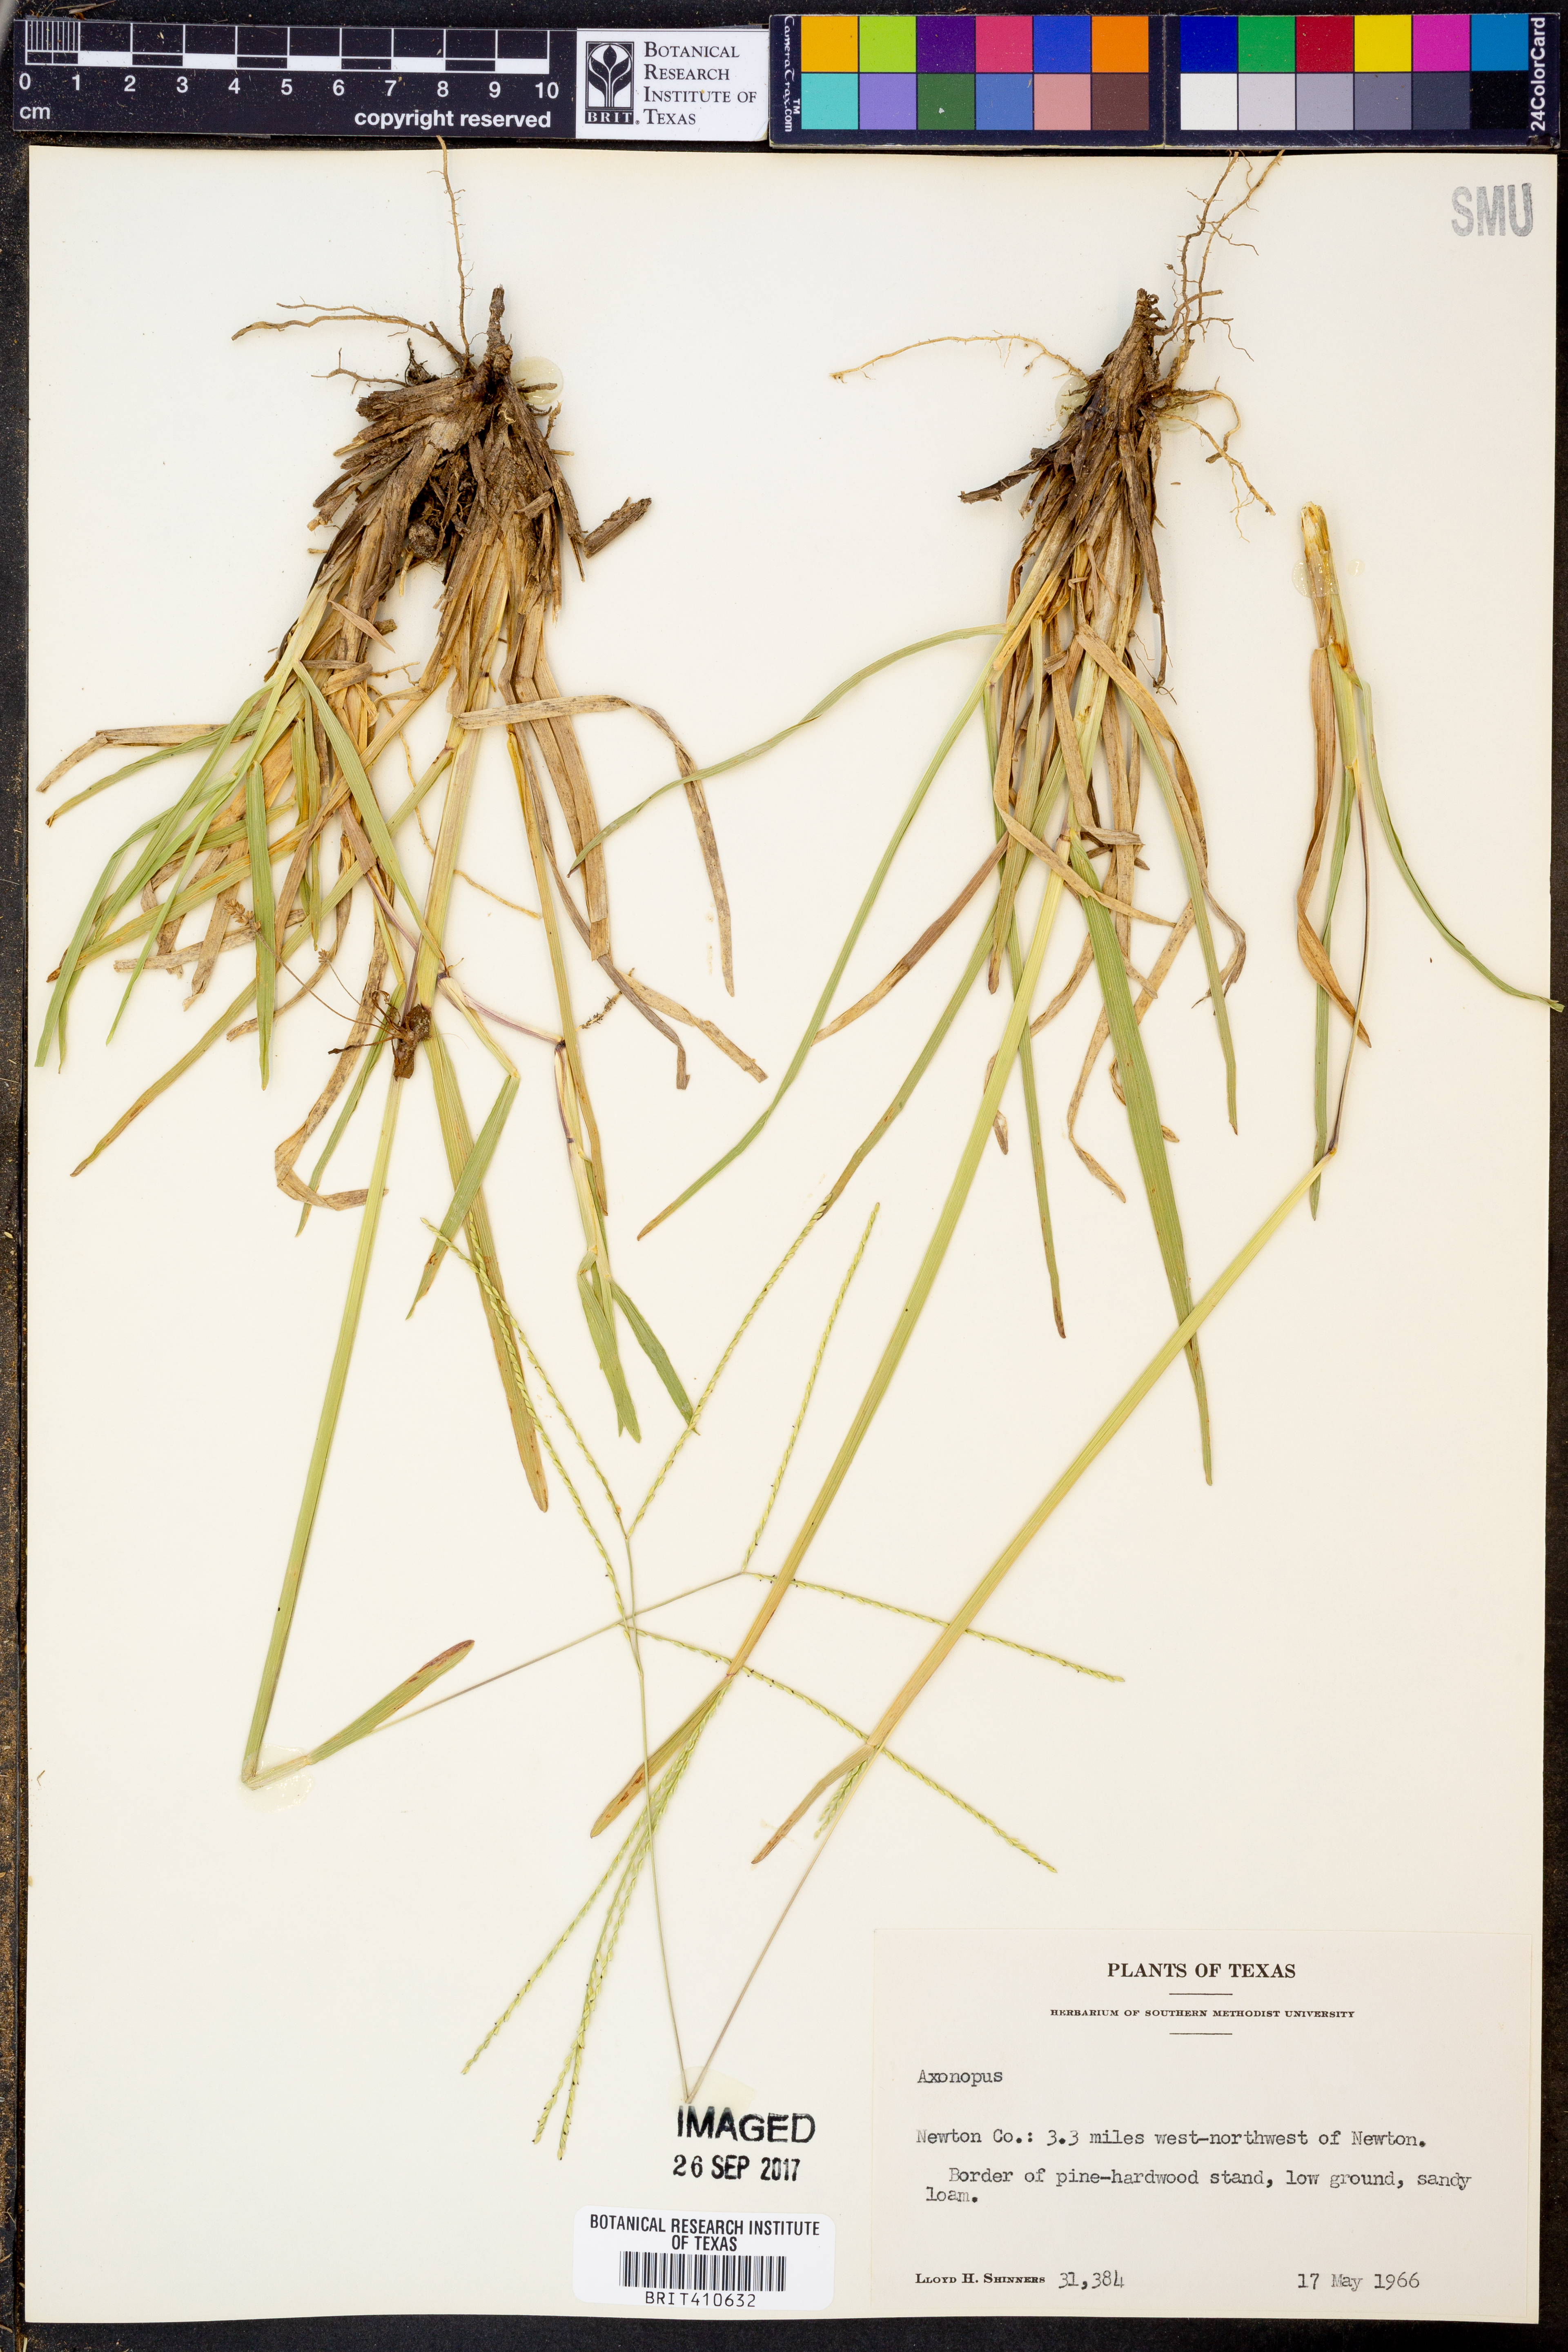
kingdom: Plantae
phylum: Tracheophyta
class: Liliopsida
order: Poales
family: Poaceae
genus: Axonopus
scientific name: Axonopus
